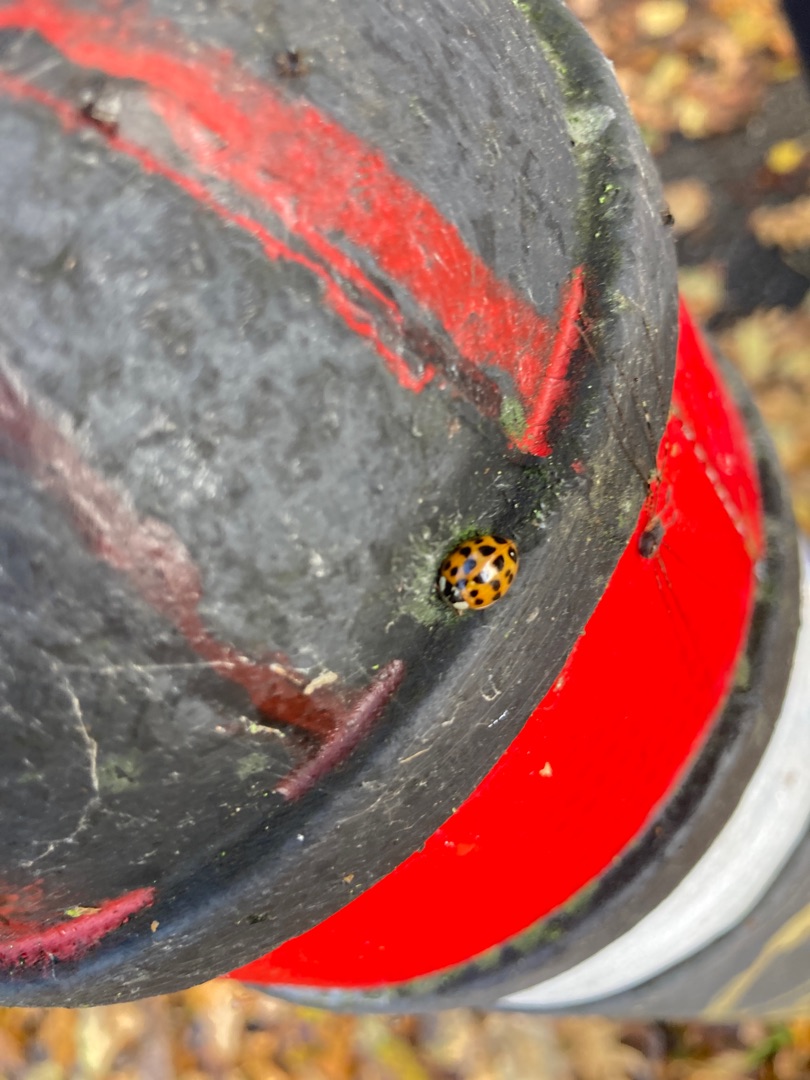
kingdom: Animalia
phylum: Arthropoda
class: Insecta
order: Coleoptera
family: Coccinellidae
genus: Harmonia
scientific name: Harmonia axyridis
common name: Harlekinmariehøne
